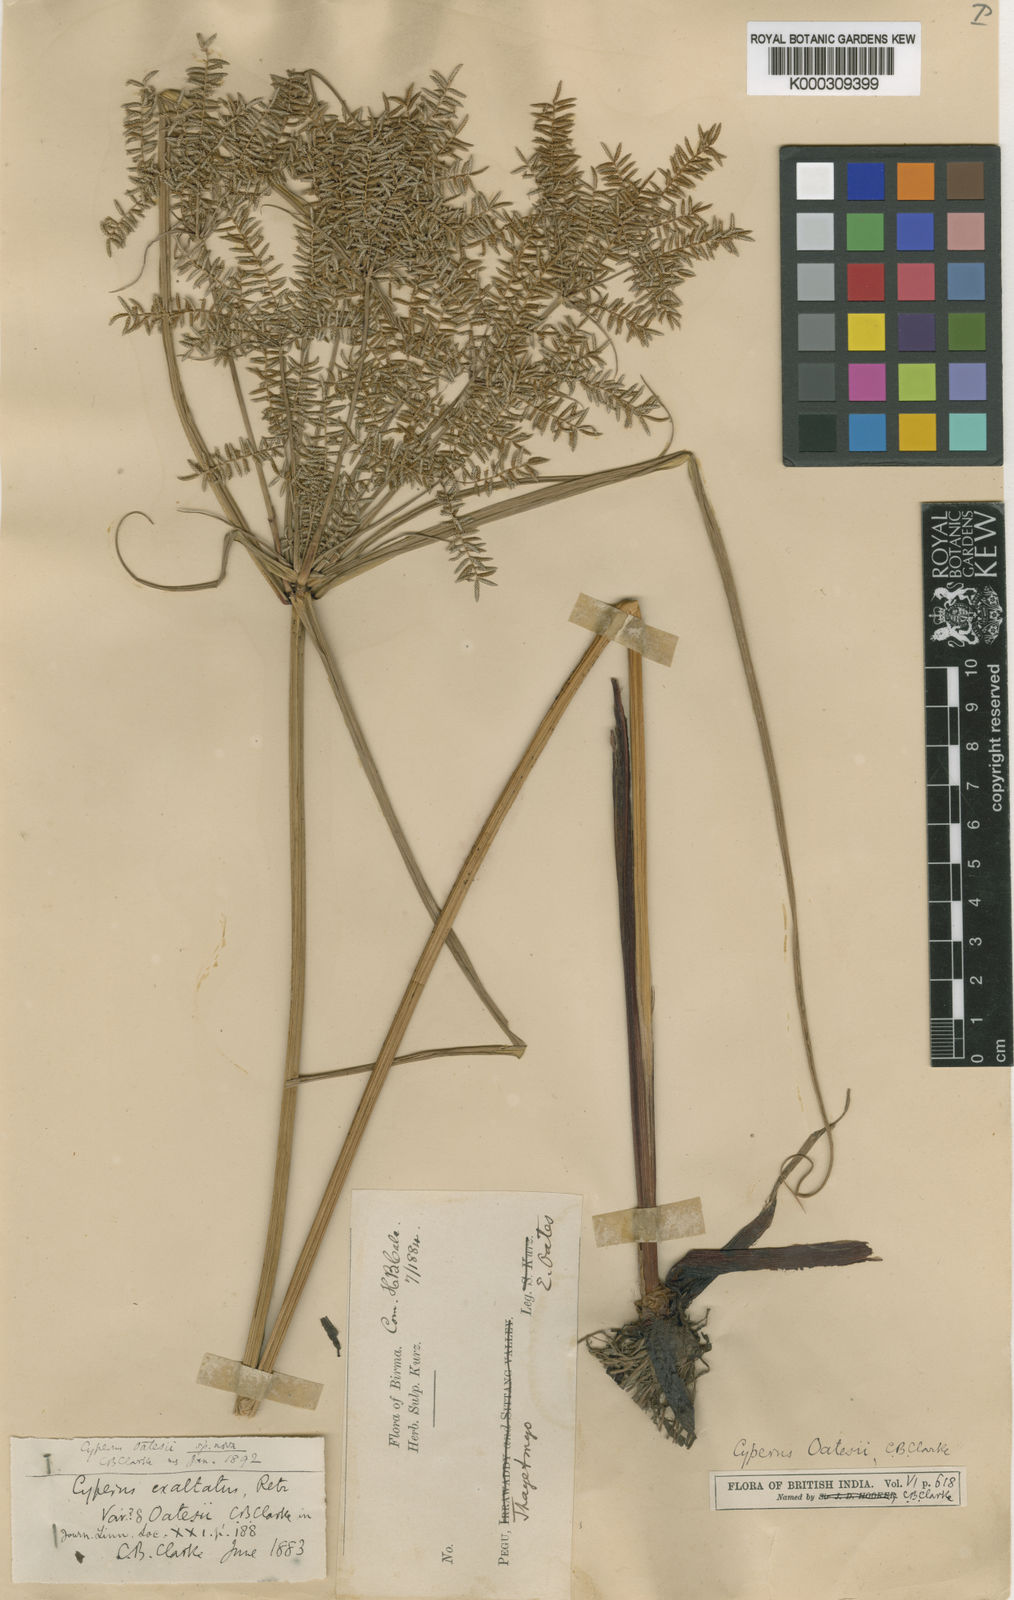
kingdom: Plantae
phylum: Tracheophyta
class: Liliopsida
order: Poales
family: Cyperaceae
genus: Cyperus
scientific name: Cyperus digitatus
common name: Finger flatsedge
